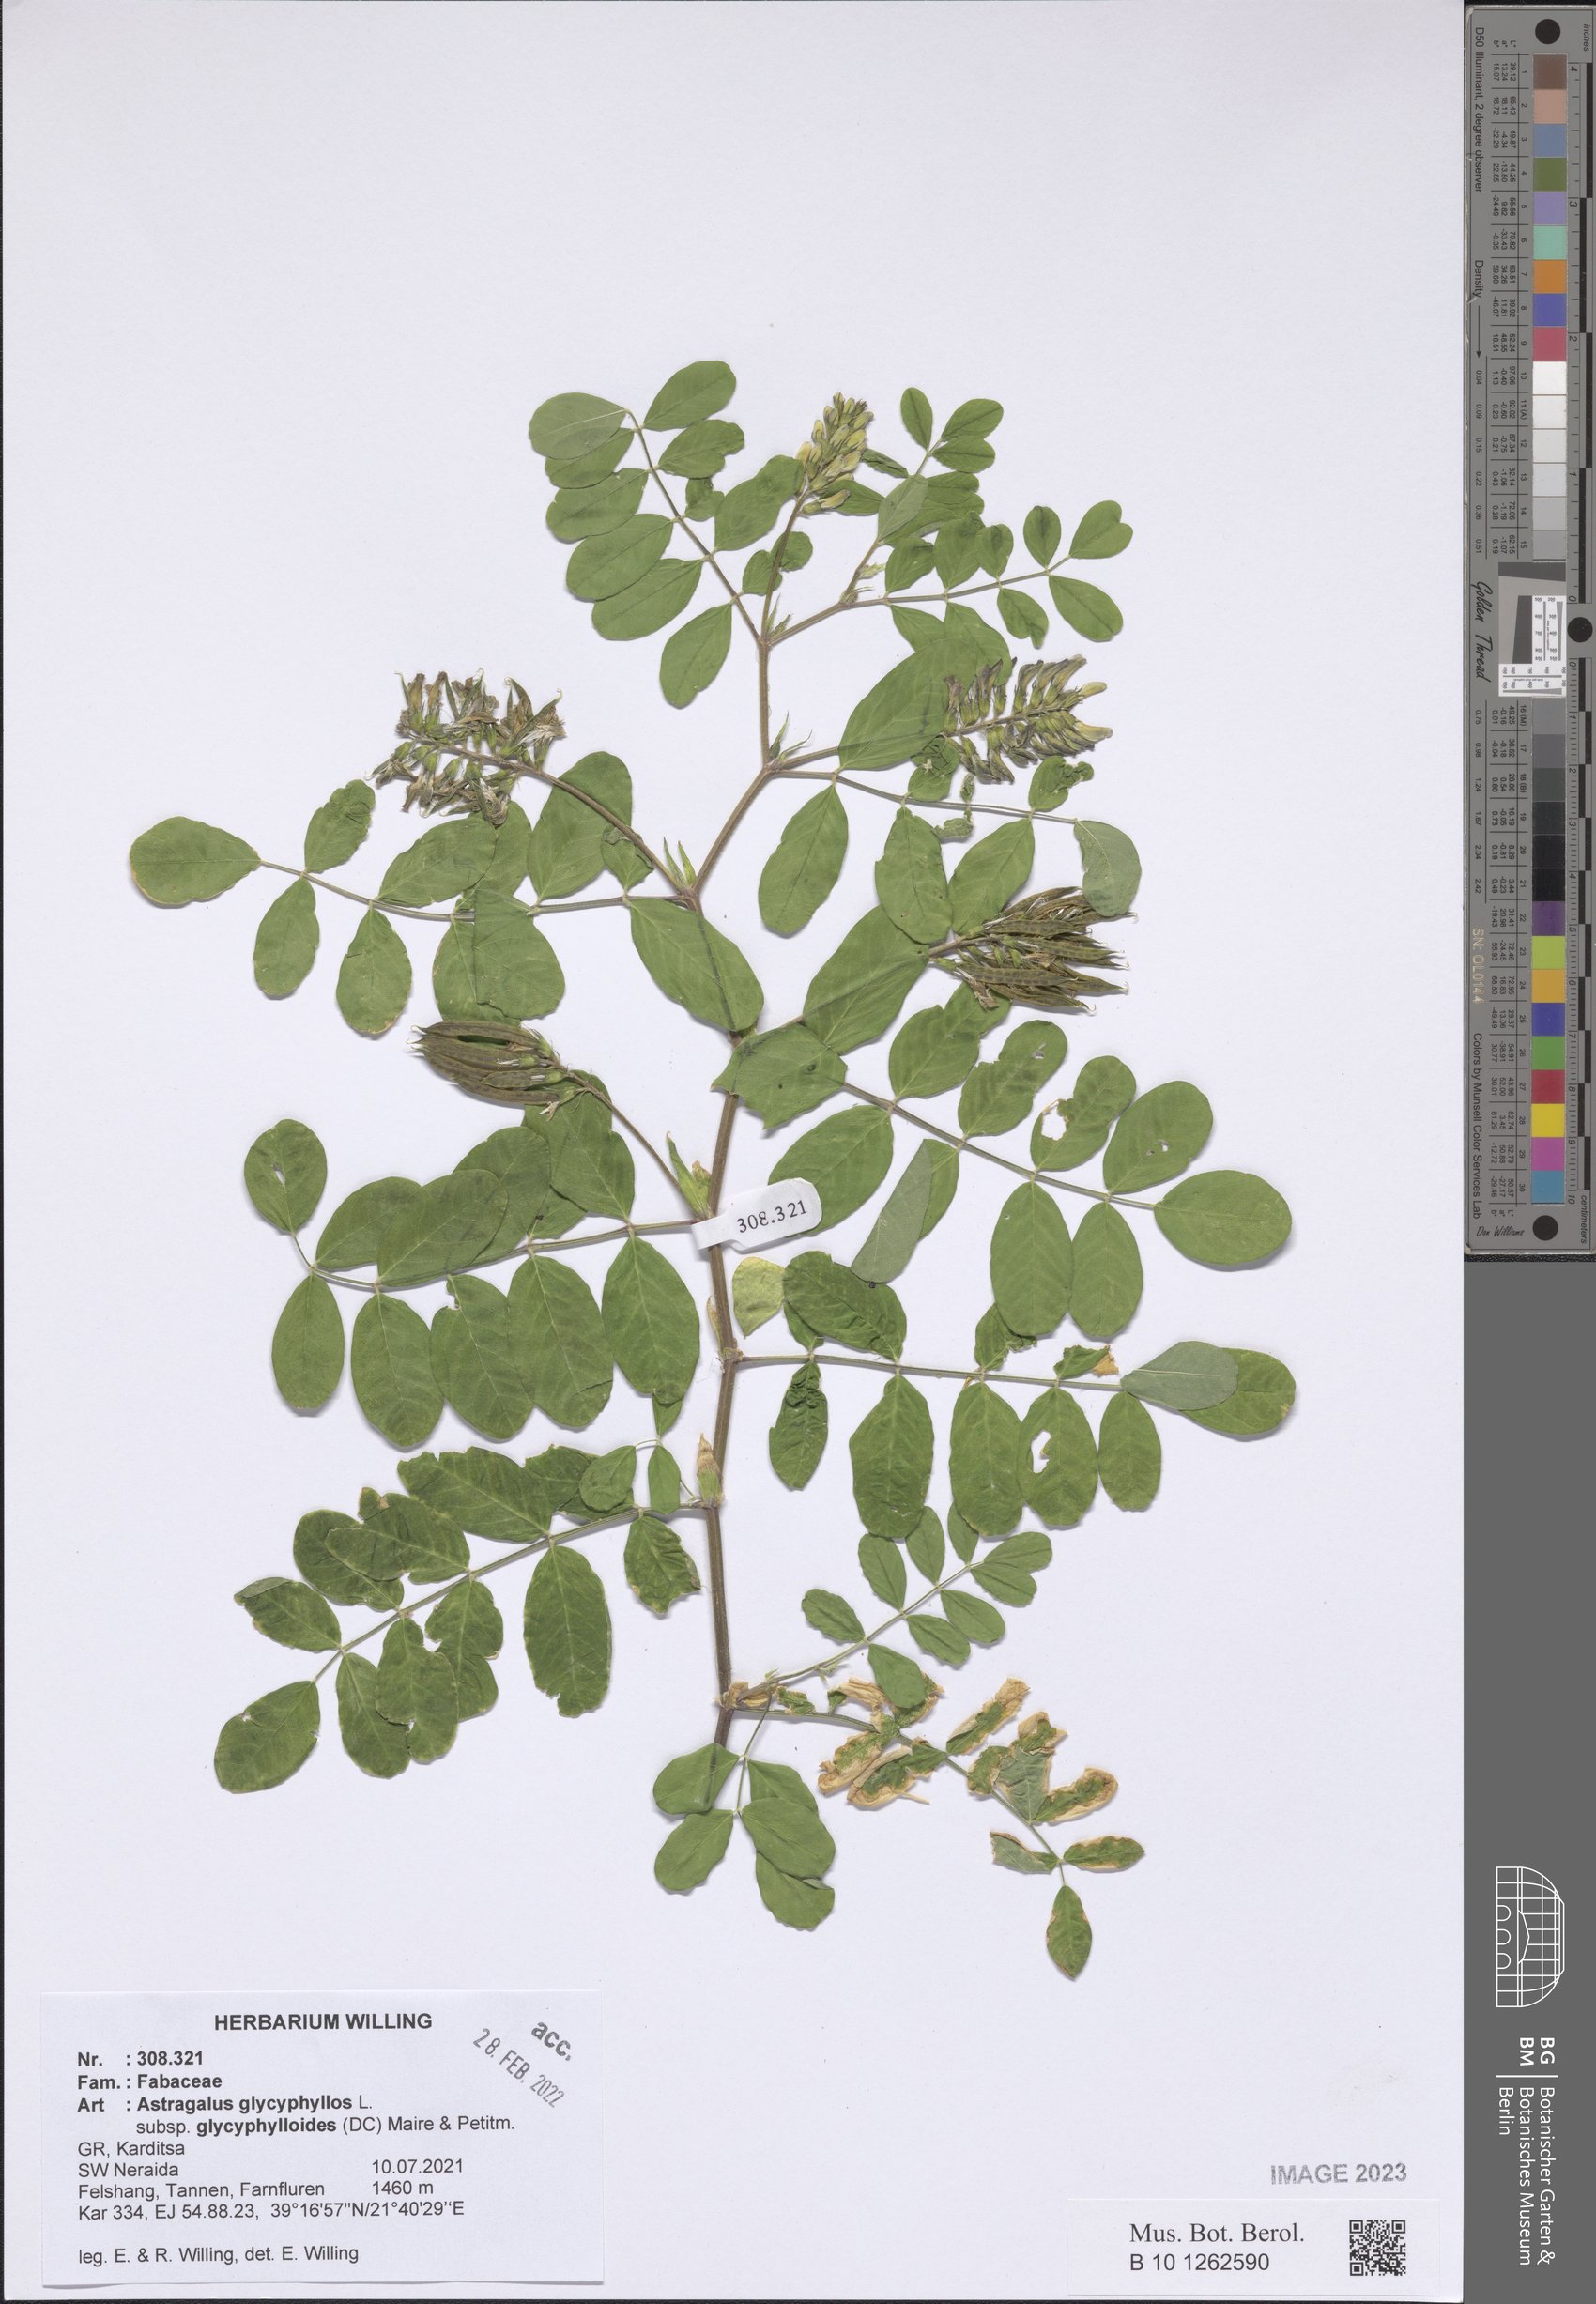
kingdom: Plantae
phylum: Tracheophyta
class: Magnoliopsida
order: Fabales
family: Fabaceae
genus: Astragalus
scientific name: Astragalus glycyphylloides
